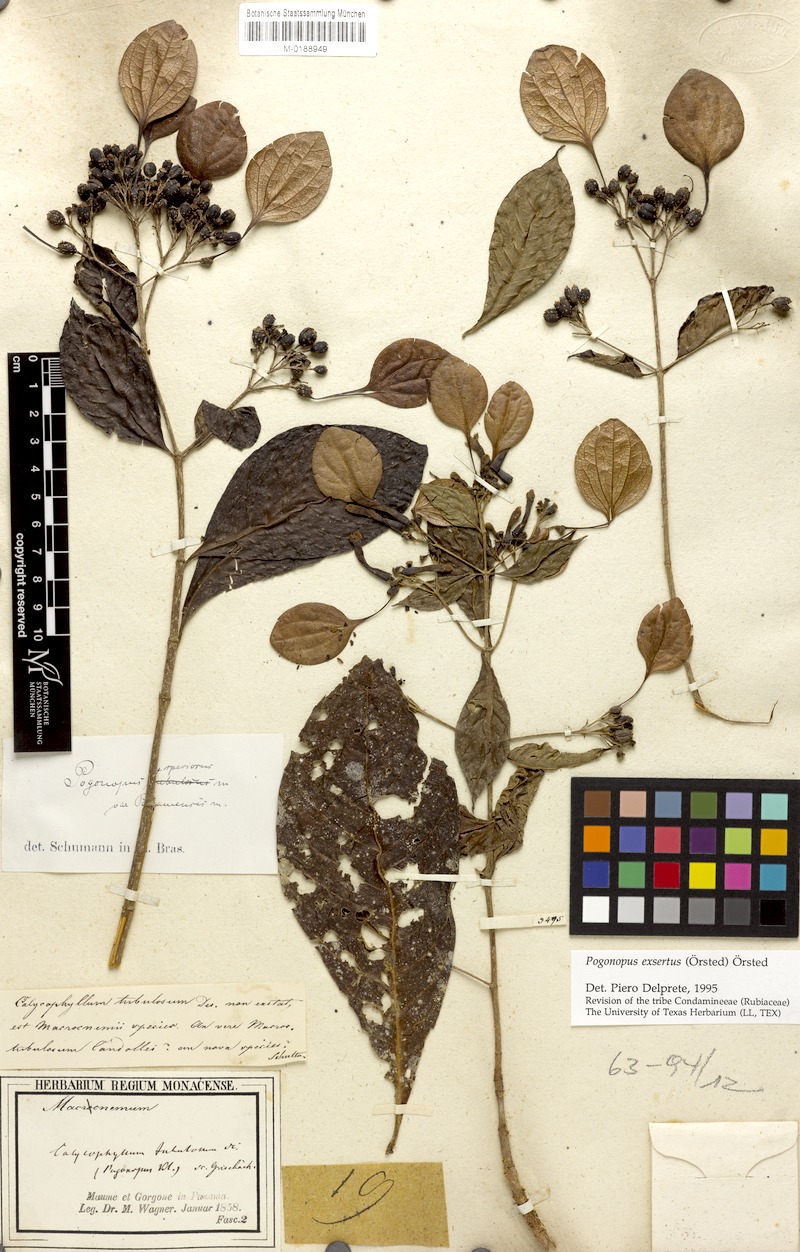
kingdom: Plantae
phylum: Tracheophyta
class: Magnoliopsida
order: Gentianales
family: Rubiaceae
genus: Pogonopus
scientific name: Pogonopus exsertus
